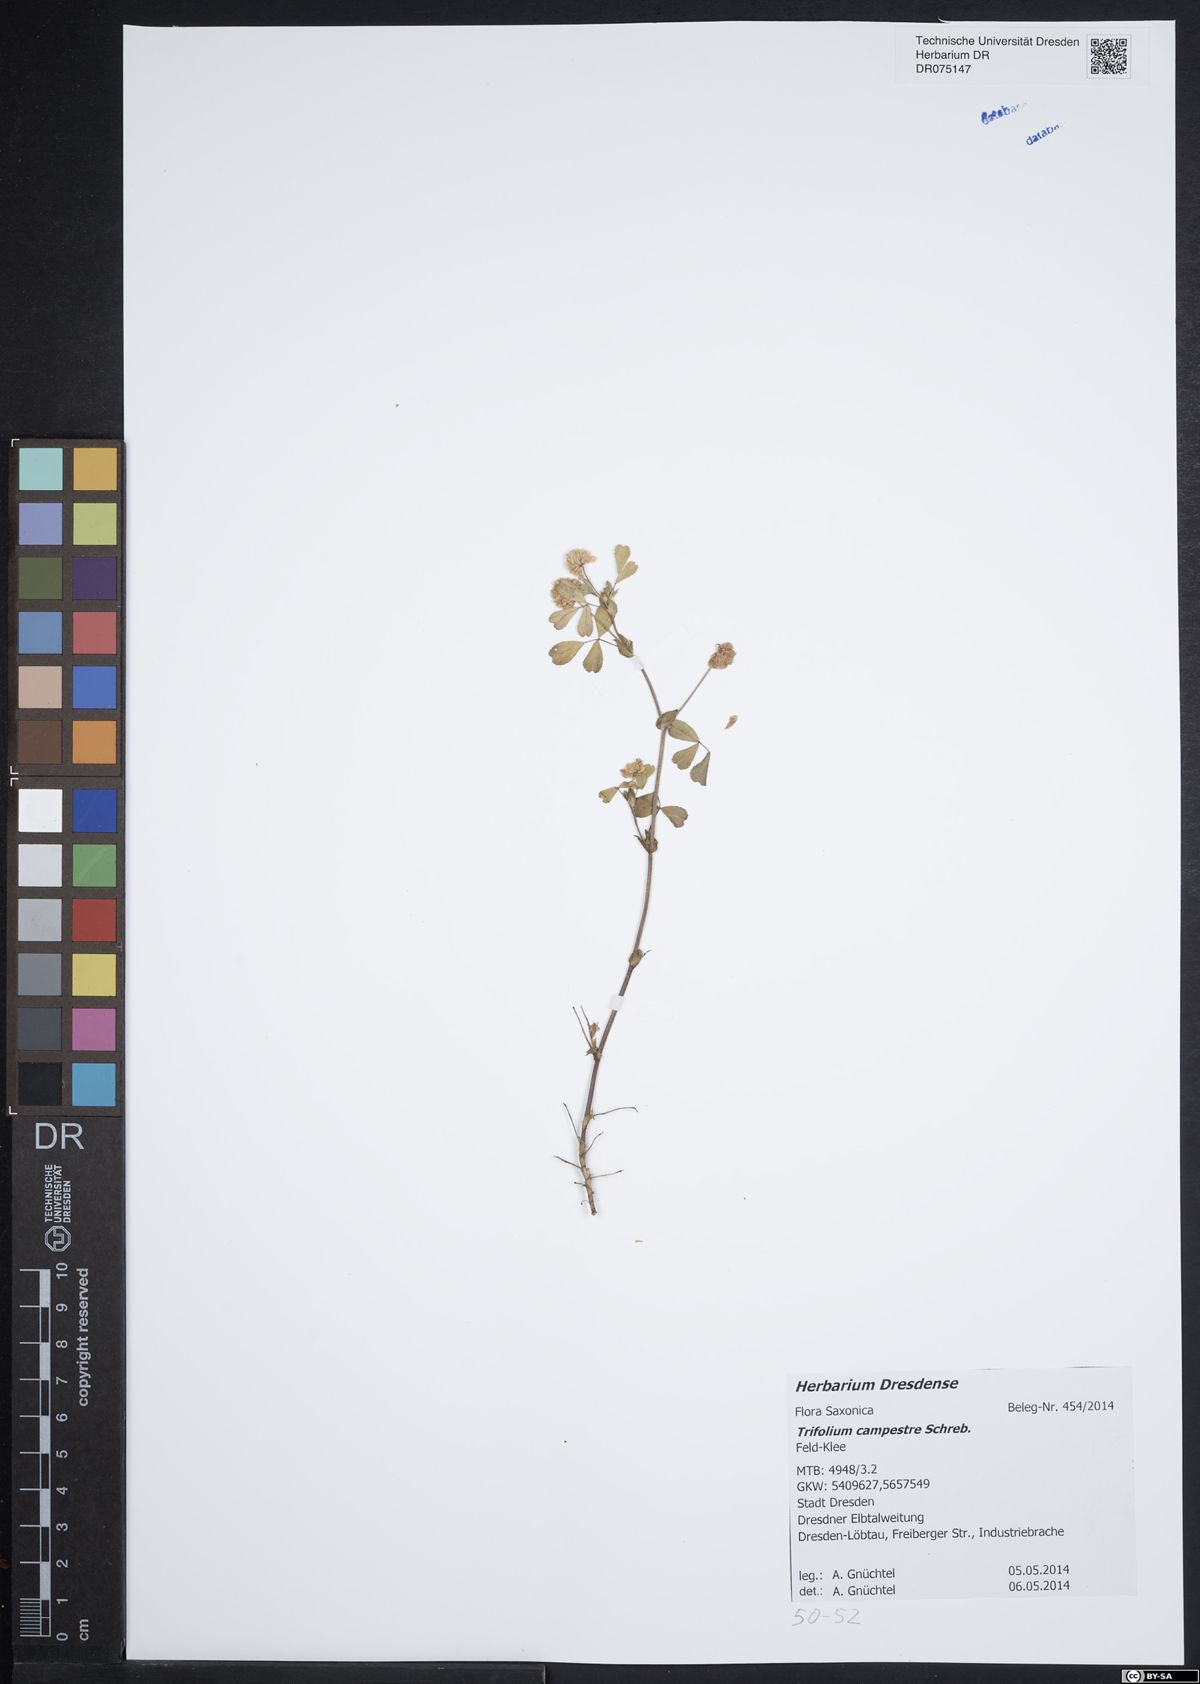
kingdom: Plantae
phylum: Tracheophyta
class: Magnoliopsida
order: Fabales
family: Fabaceae
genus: Trifolium
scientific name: Trifolium campestre
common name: Field clover
